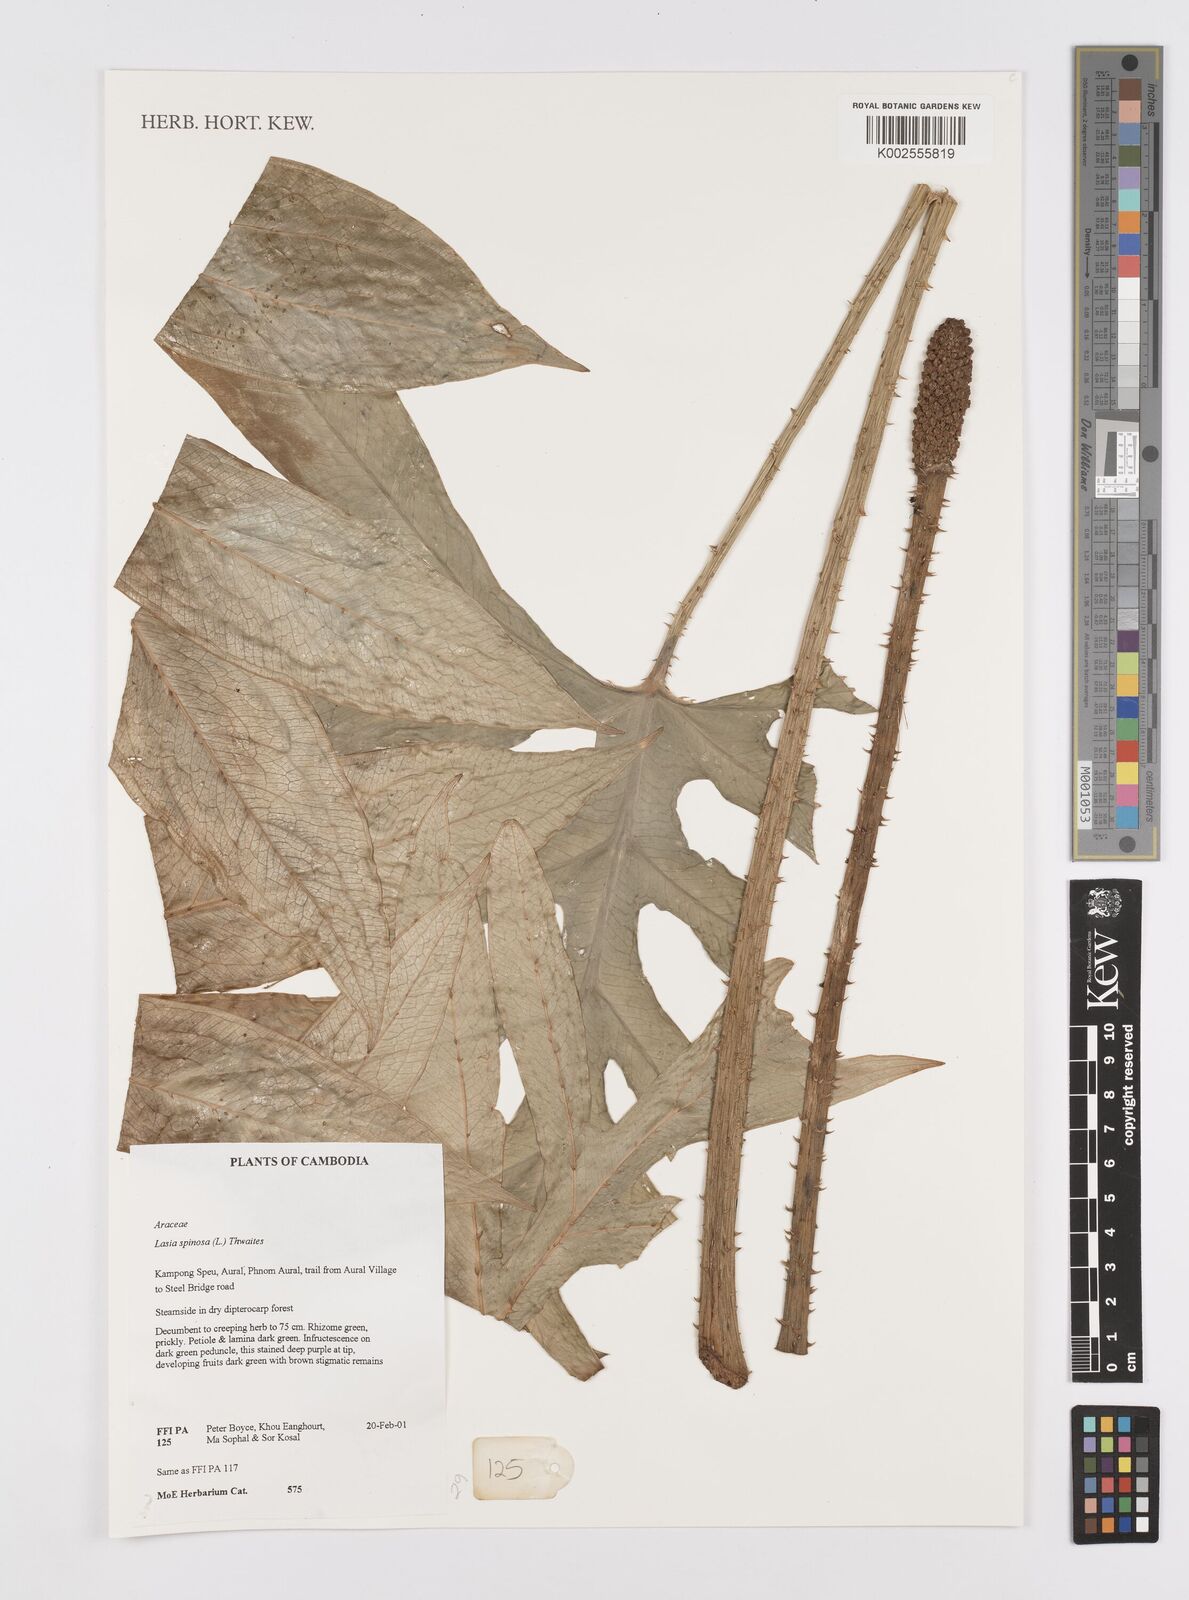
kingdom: Plantae
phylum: Tracheophyta
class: Liliopsida
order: Alismatales
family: Araceae
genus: Lasia
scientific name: Lasia spinosa
